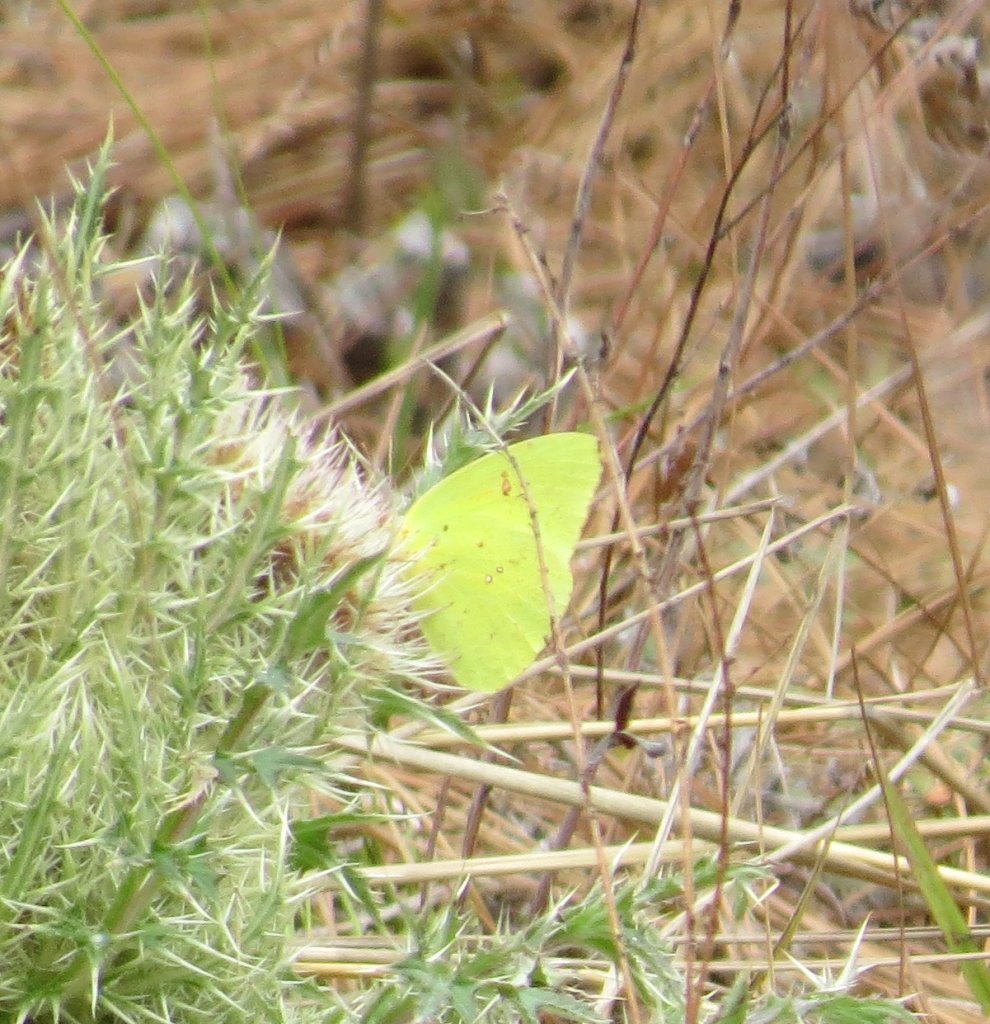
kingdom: Animalia
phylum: Arthropoda
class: Insecta
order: Lepidoptera
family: Pieridae
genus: Phoebis
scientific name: Phoebis sennae
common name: Cloudless Sulphur
